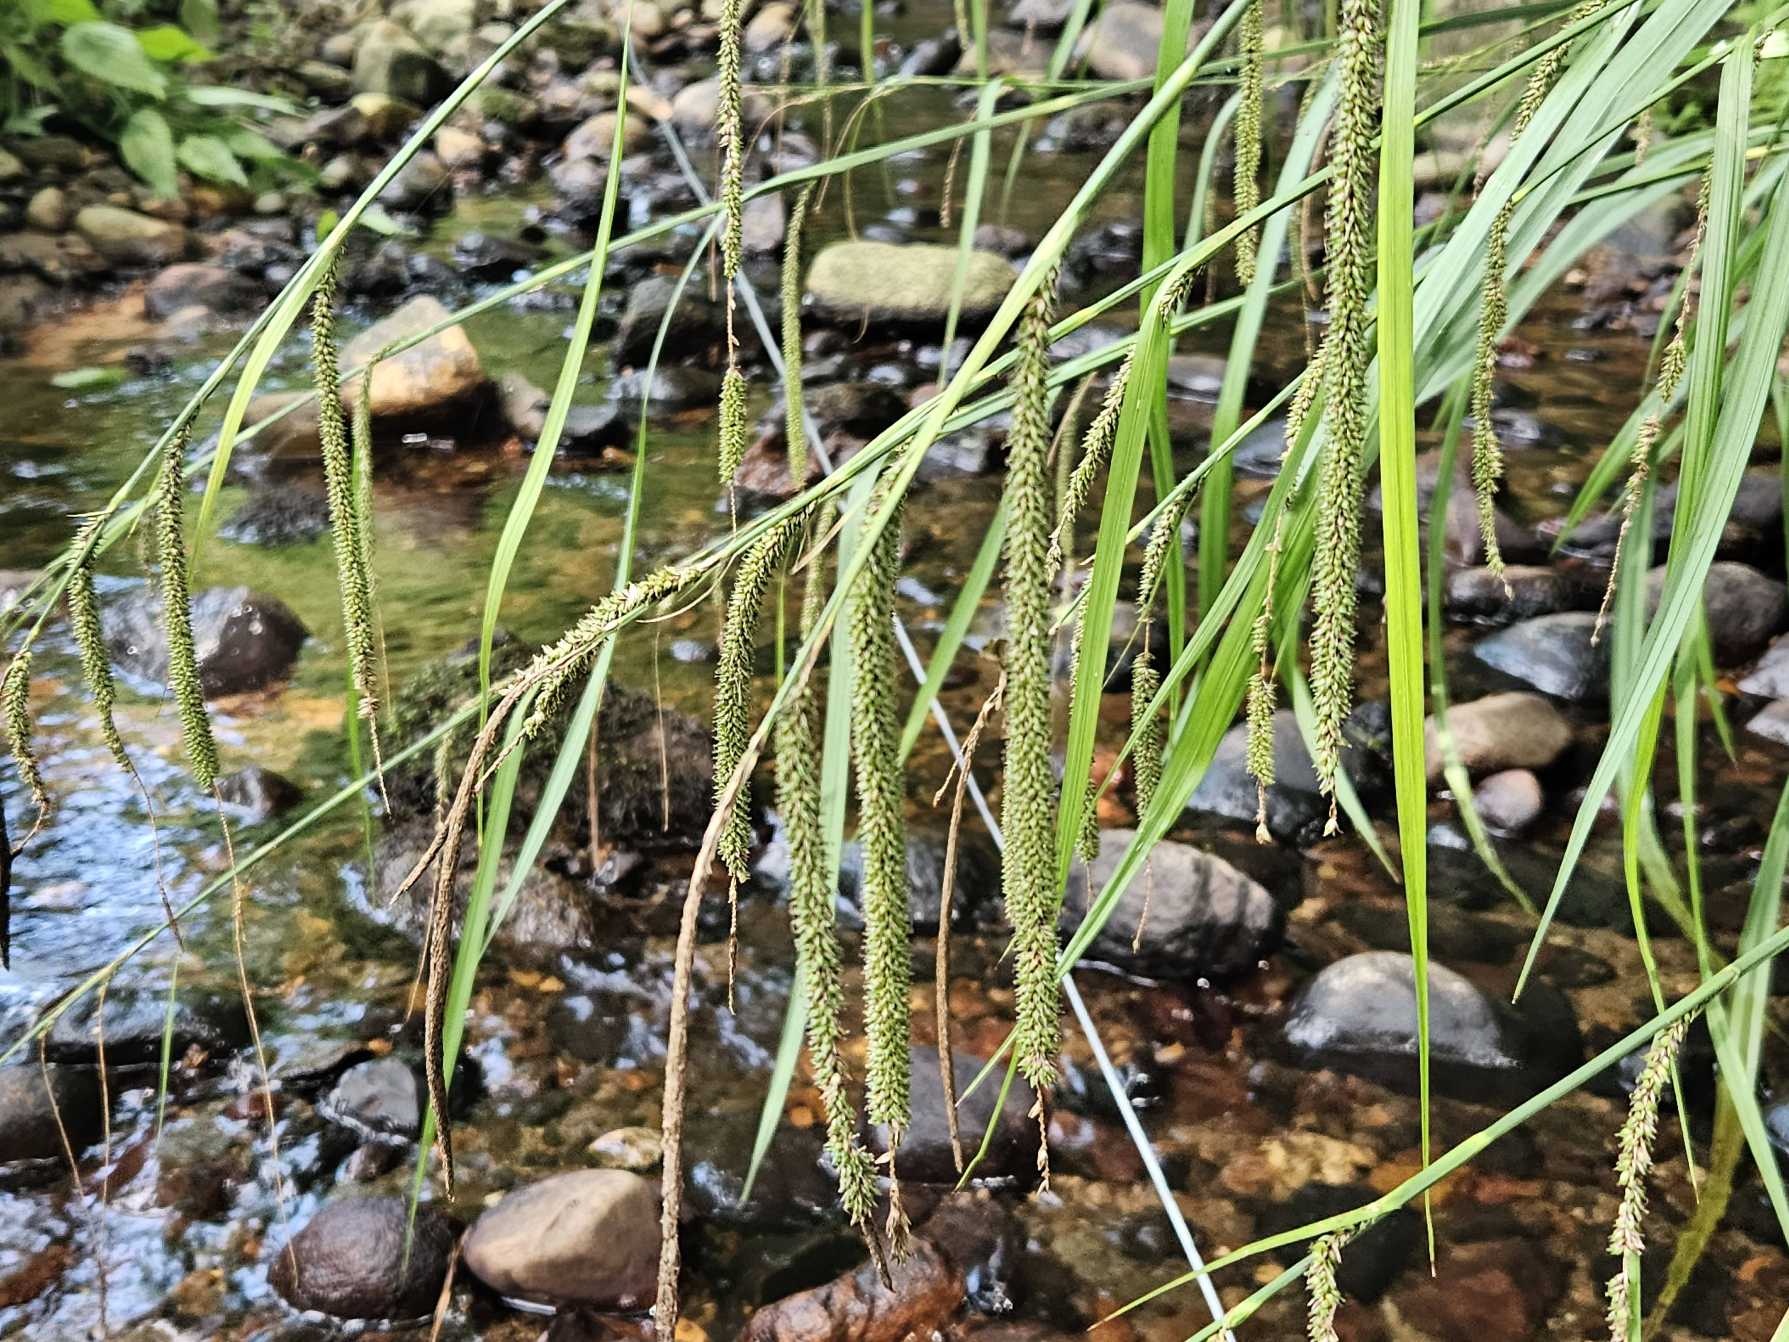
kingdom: Plantae
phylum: Tracheophyta
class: Liliopsida
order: Poales
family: Cyperaceae
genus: Carex
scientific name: Carex pendula
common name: Kæmpe-star
